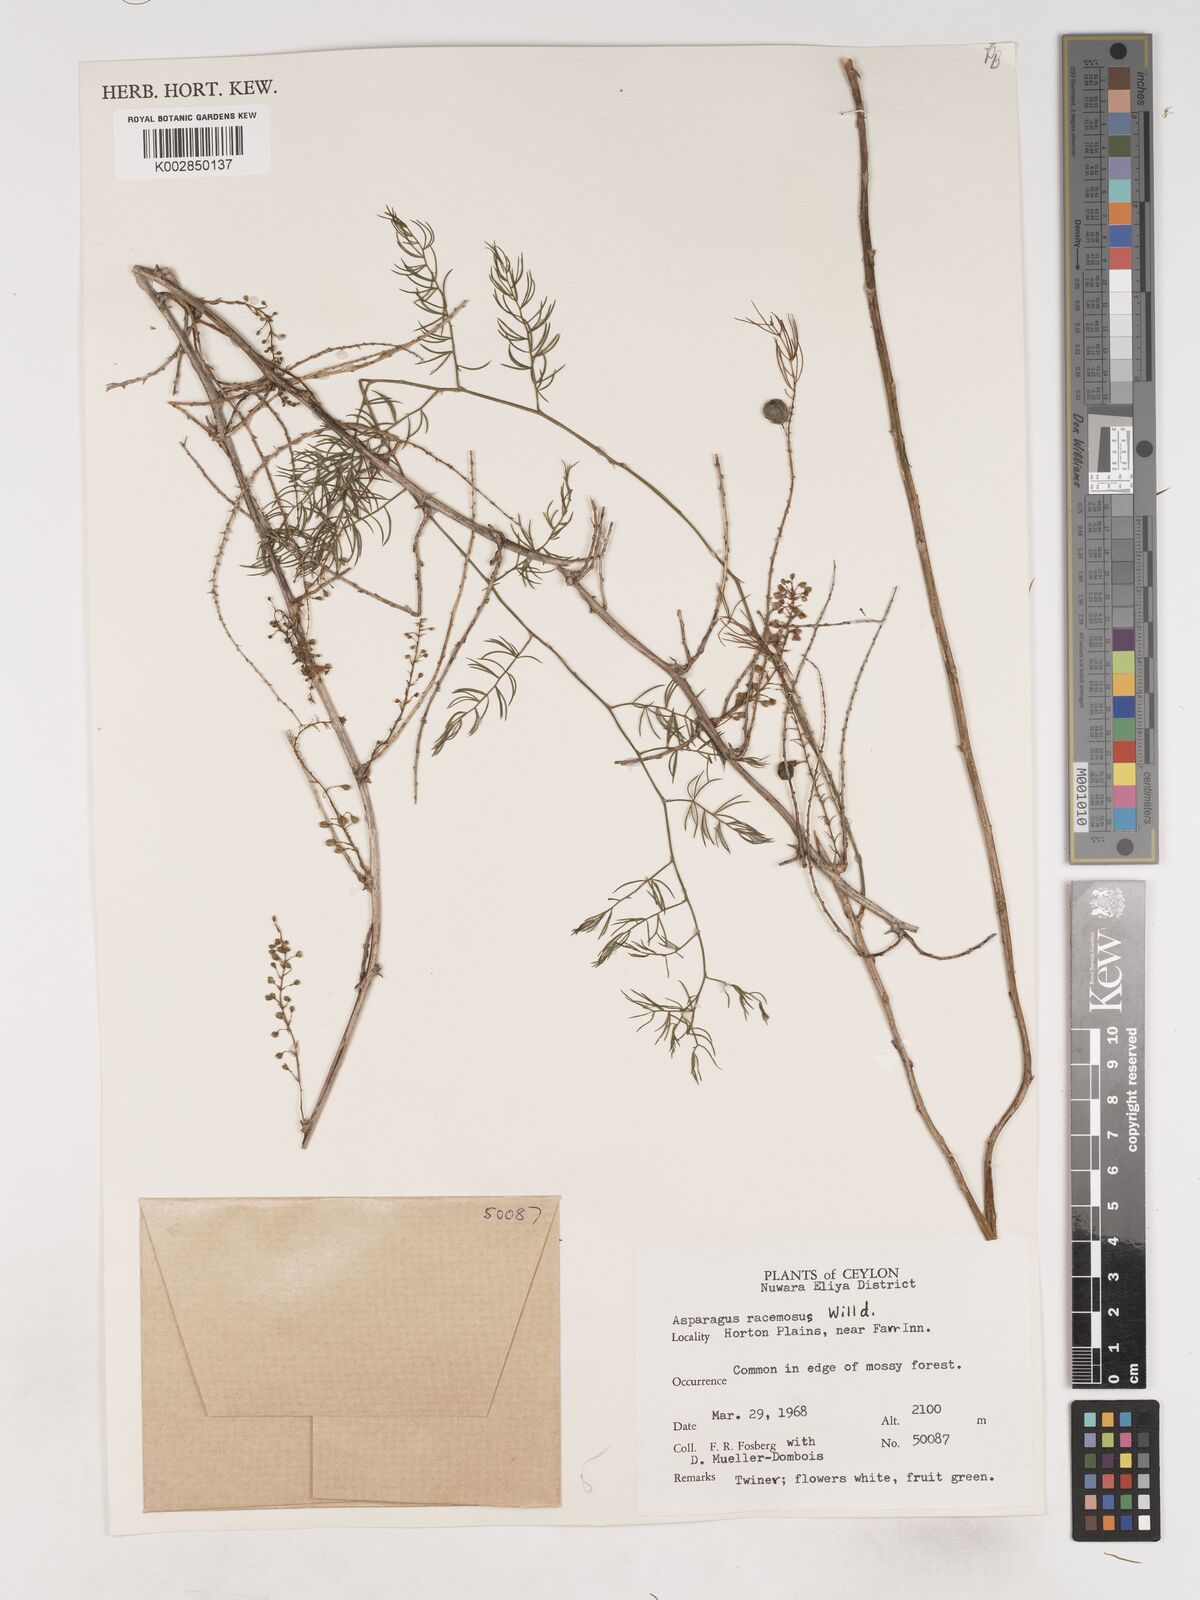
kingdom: Plantae
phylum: Tracheophyta
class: Liliopsida
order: Asparagales
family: Asparagaceae
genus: Asparagus
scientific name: Asparagus racemosus
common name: Asparagus-fern
